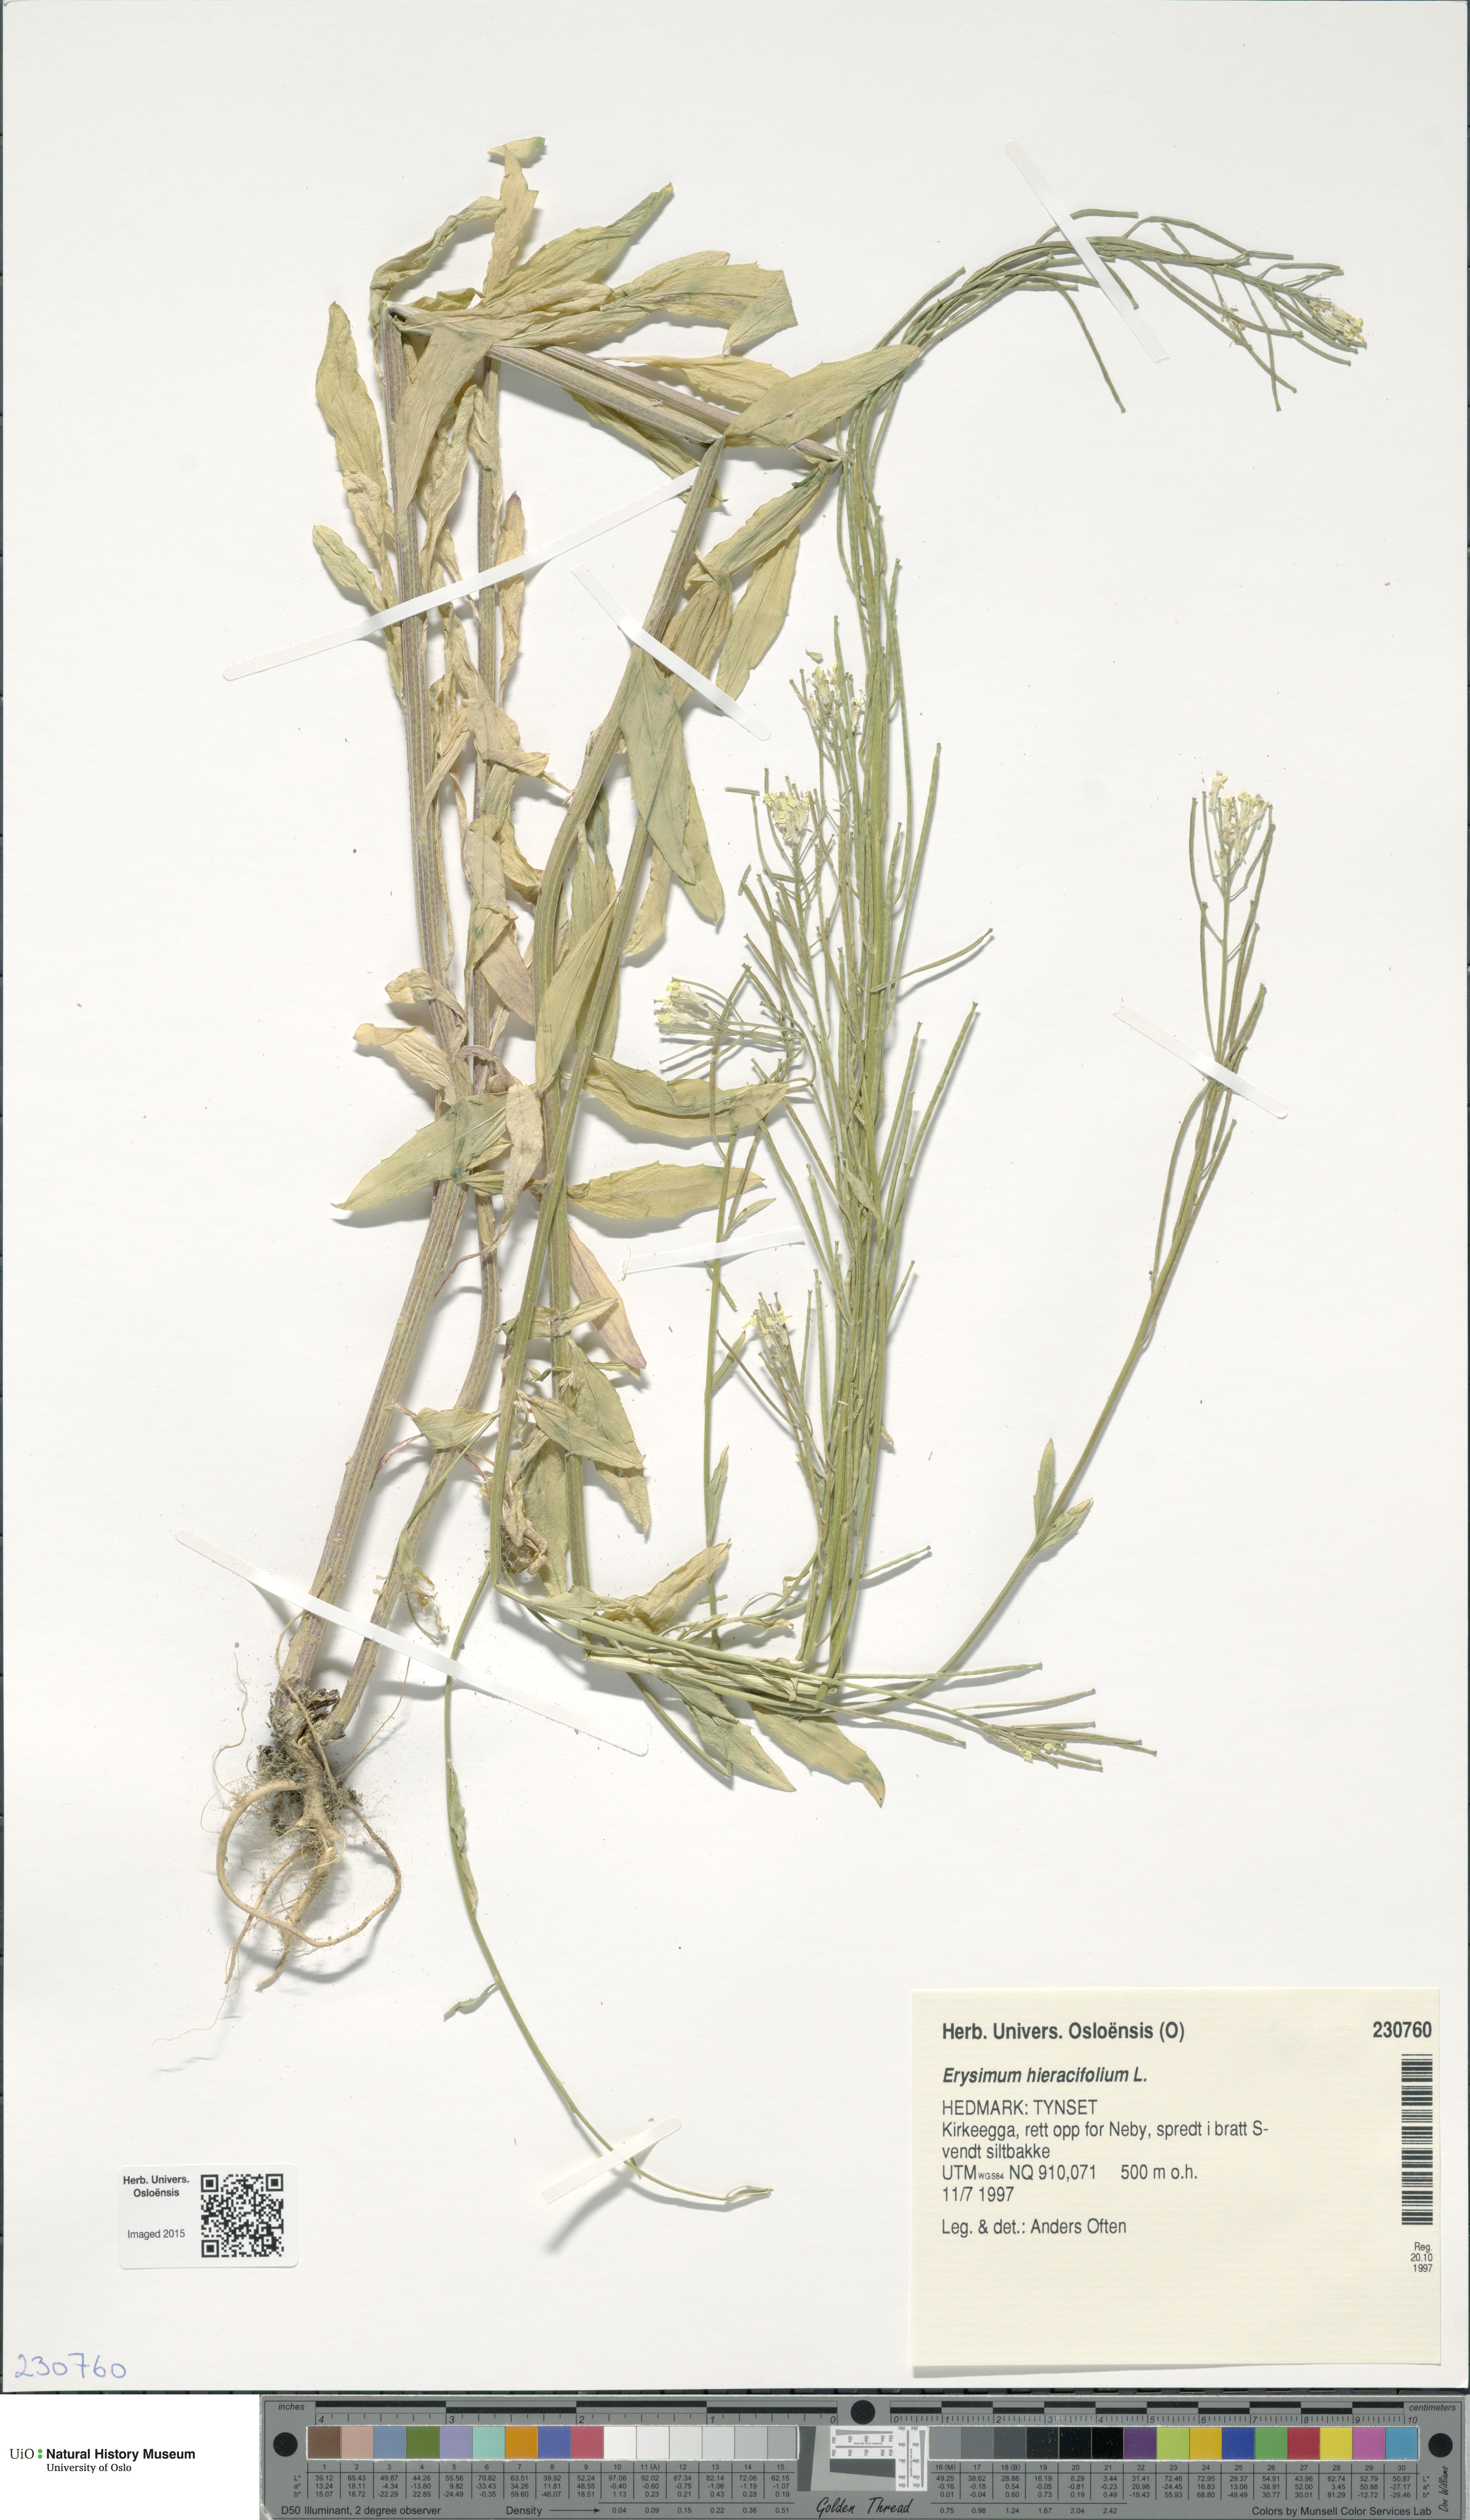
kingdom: Plantae
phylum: Tracheophyta
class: Magnoliopsida
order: Brassicales
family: Brassicaceae
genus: Erysimum
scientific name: Erysimum hieraciifolium
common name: European wallflower
